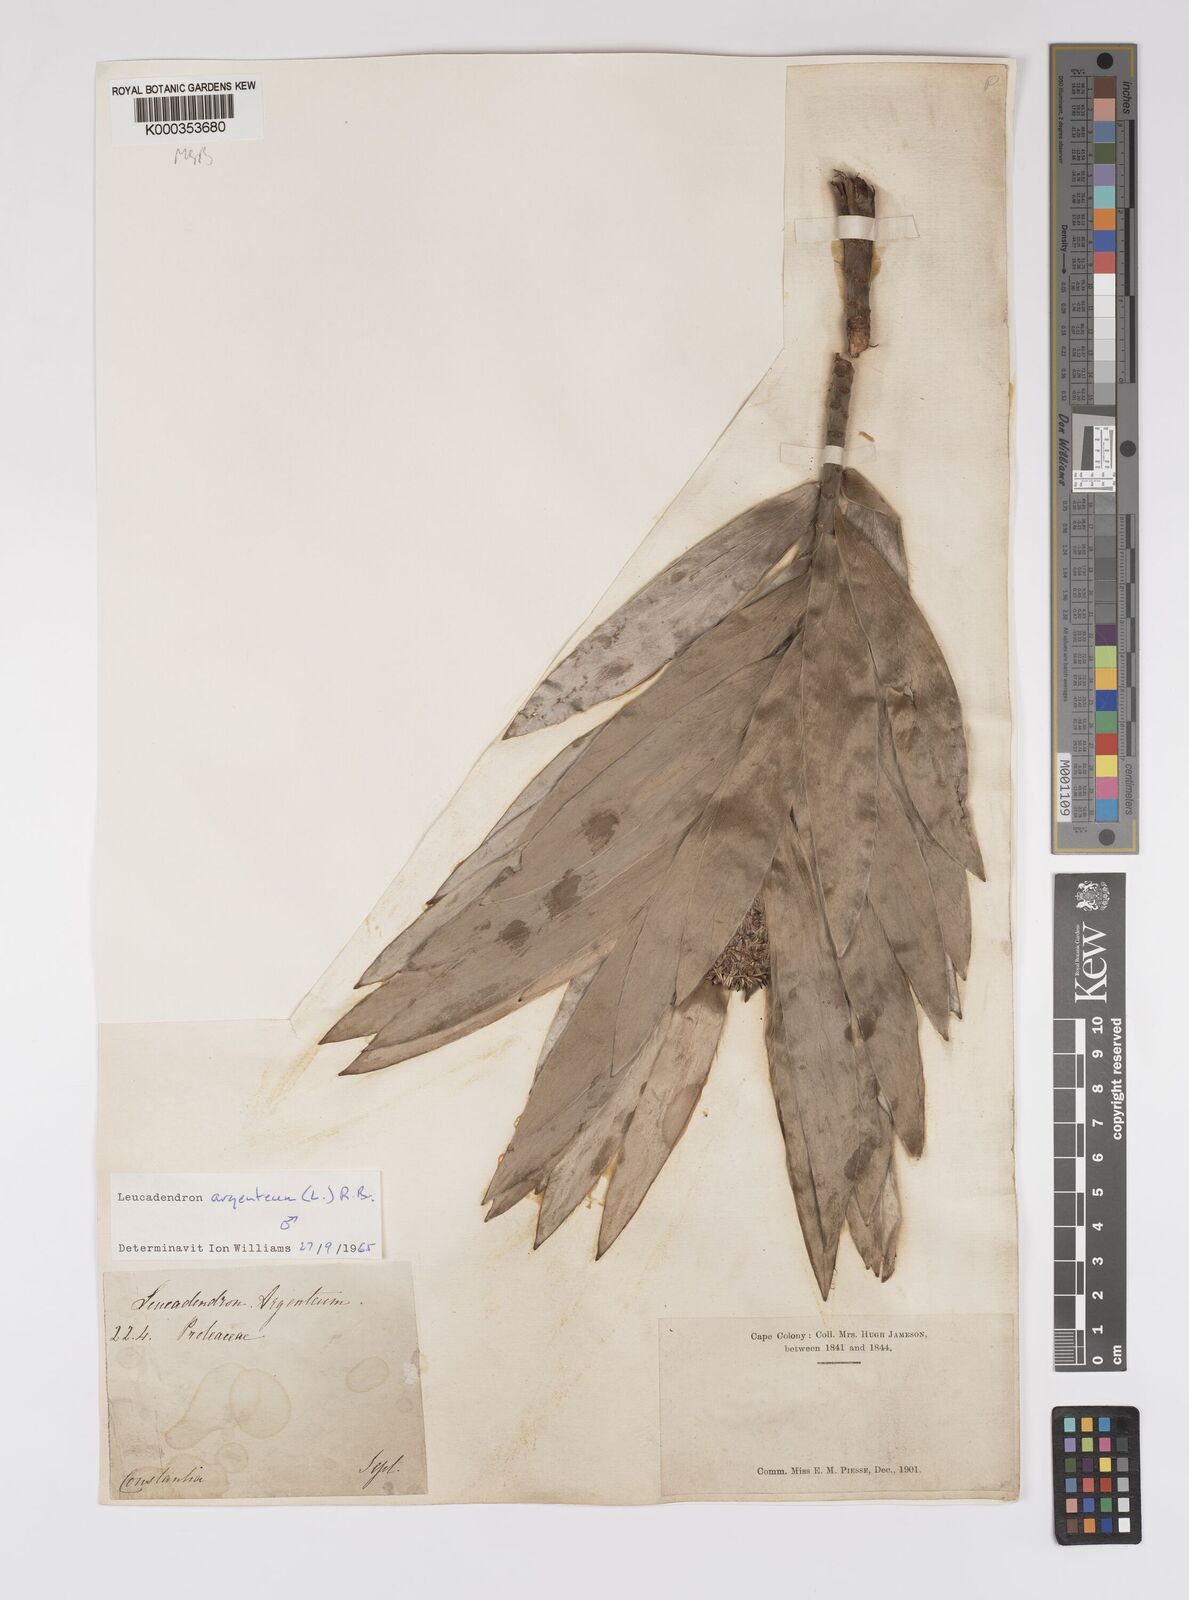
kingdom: Plantae
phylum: Tracheophyta
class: Magnoliopsida
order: Proteales
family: Proteaceae
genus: Leucadendron
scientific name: Leucadendron argenteum
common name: Cape silver tree
